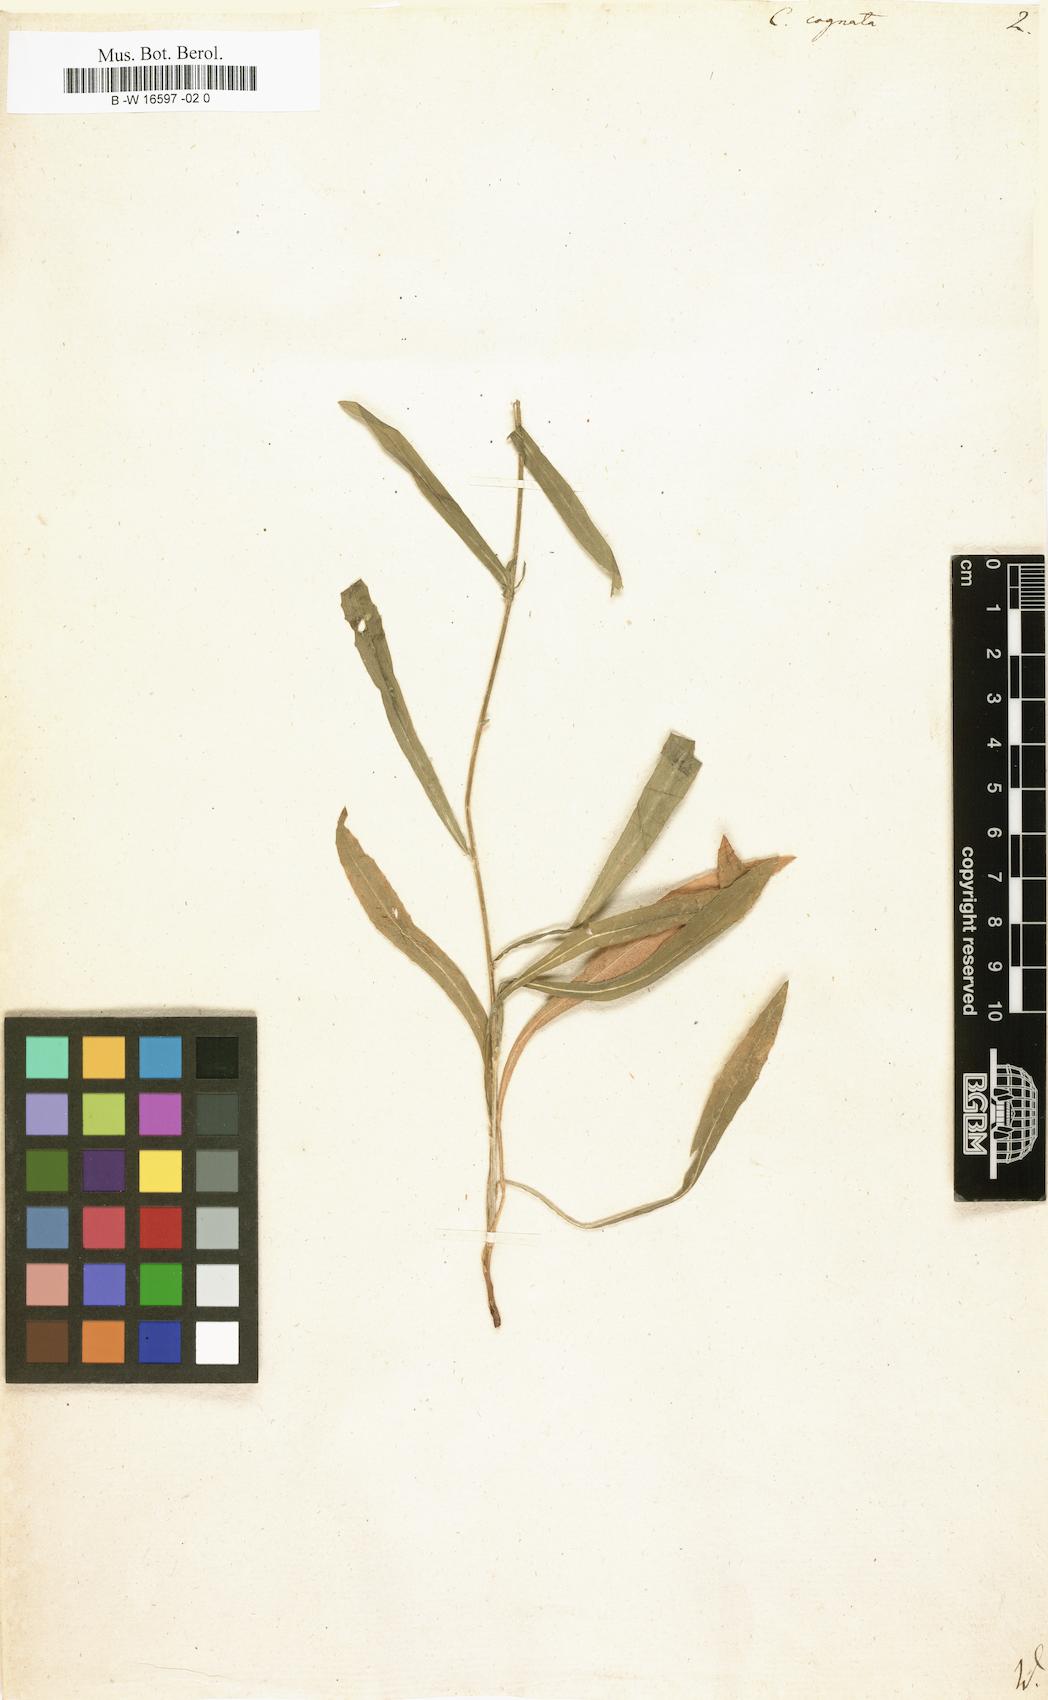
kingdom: Plantae
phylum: Tracheophyta
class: Magnoliopsida
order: Asterales
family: Asteraceae
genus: Centaurea
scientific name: Centaurea
